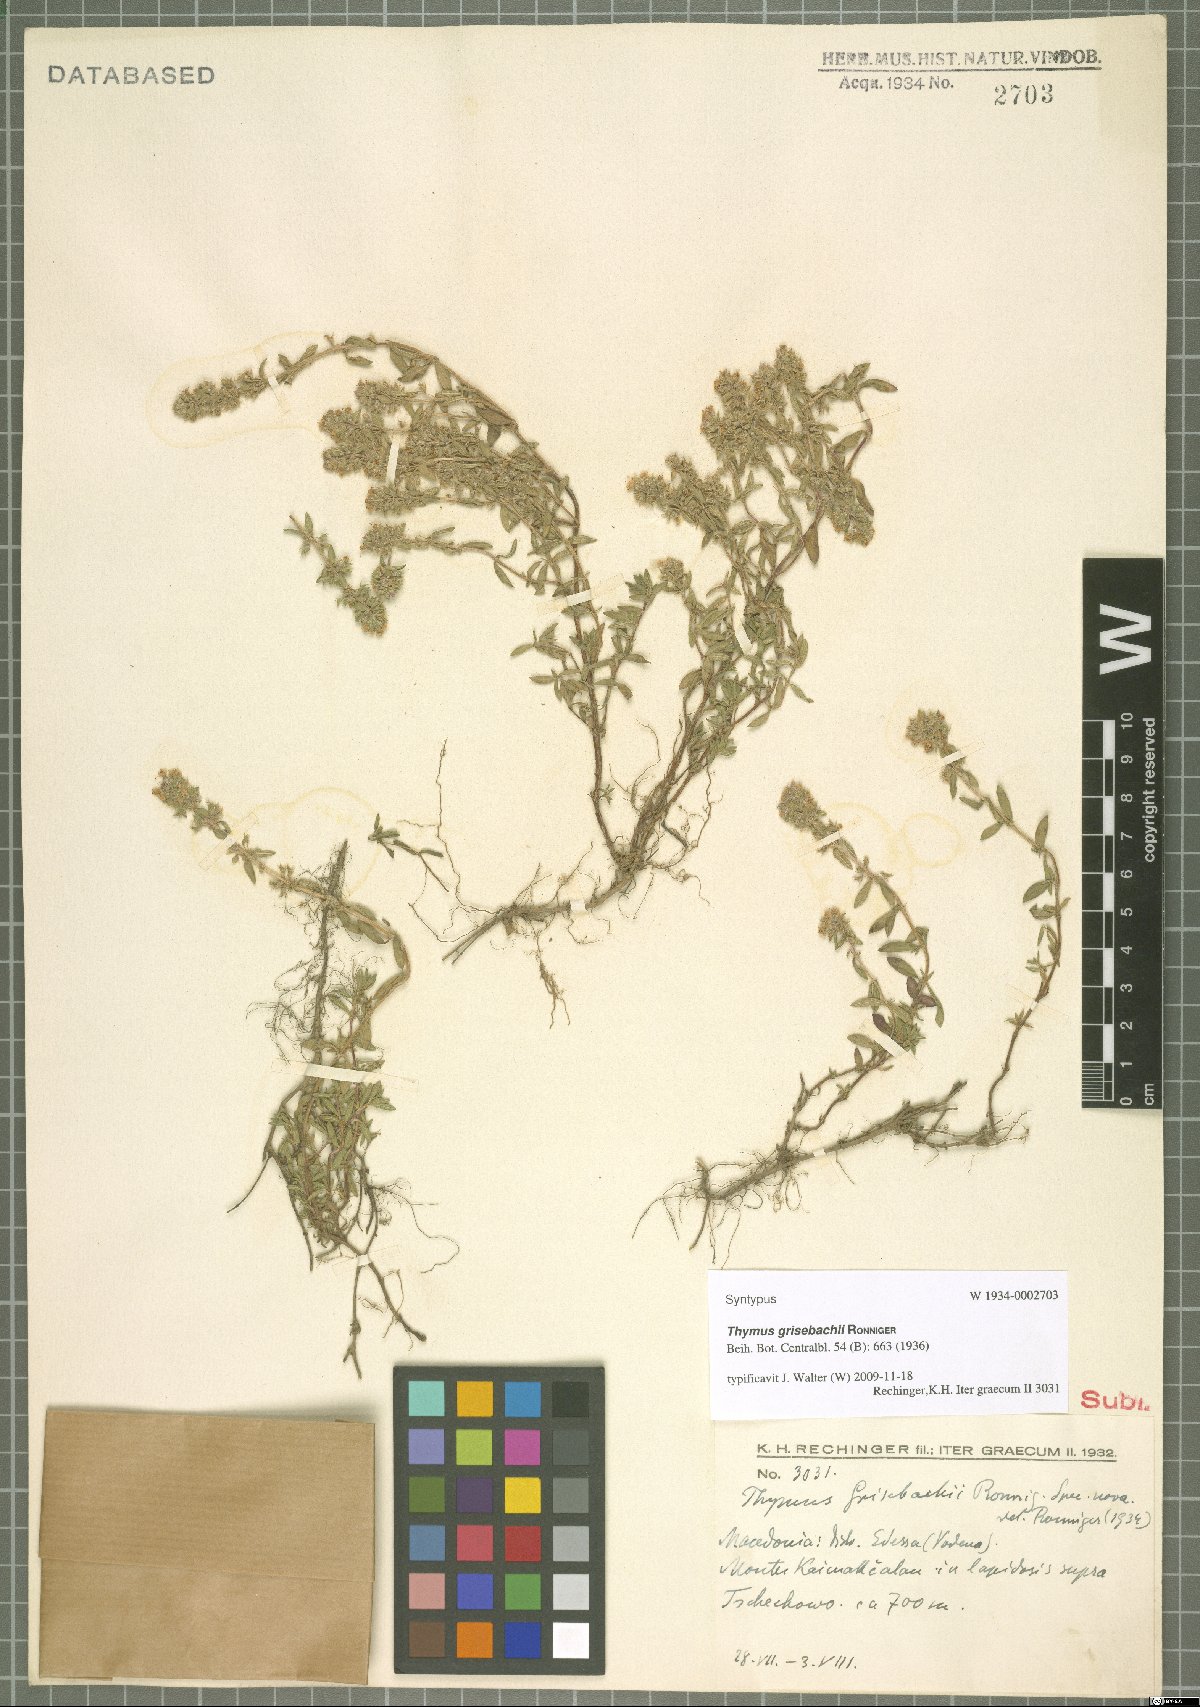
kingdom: Plantae
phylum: Tracheophyta
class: Magnoliopsida
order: Lamiales
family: Lamiaceae
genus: Thymus
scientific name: Thymus sibthorpii
